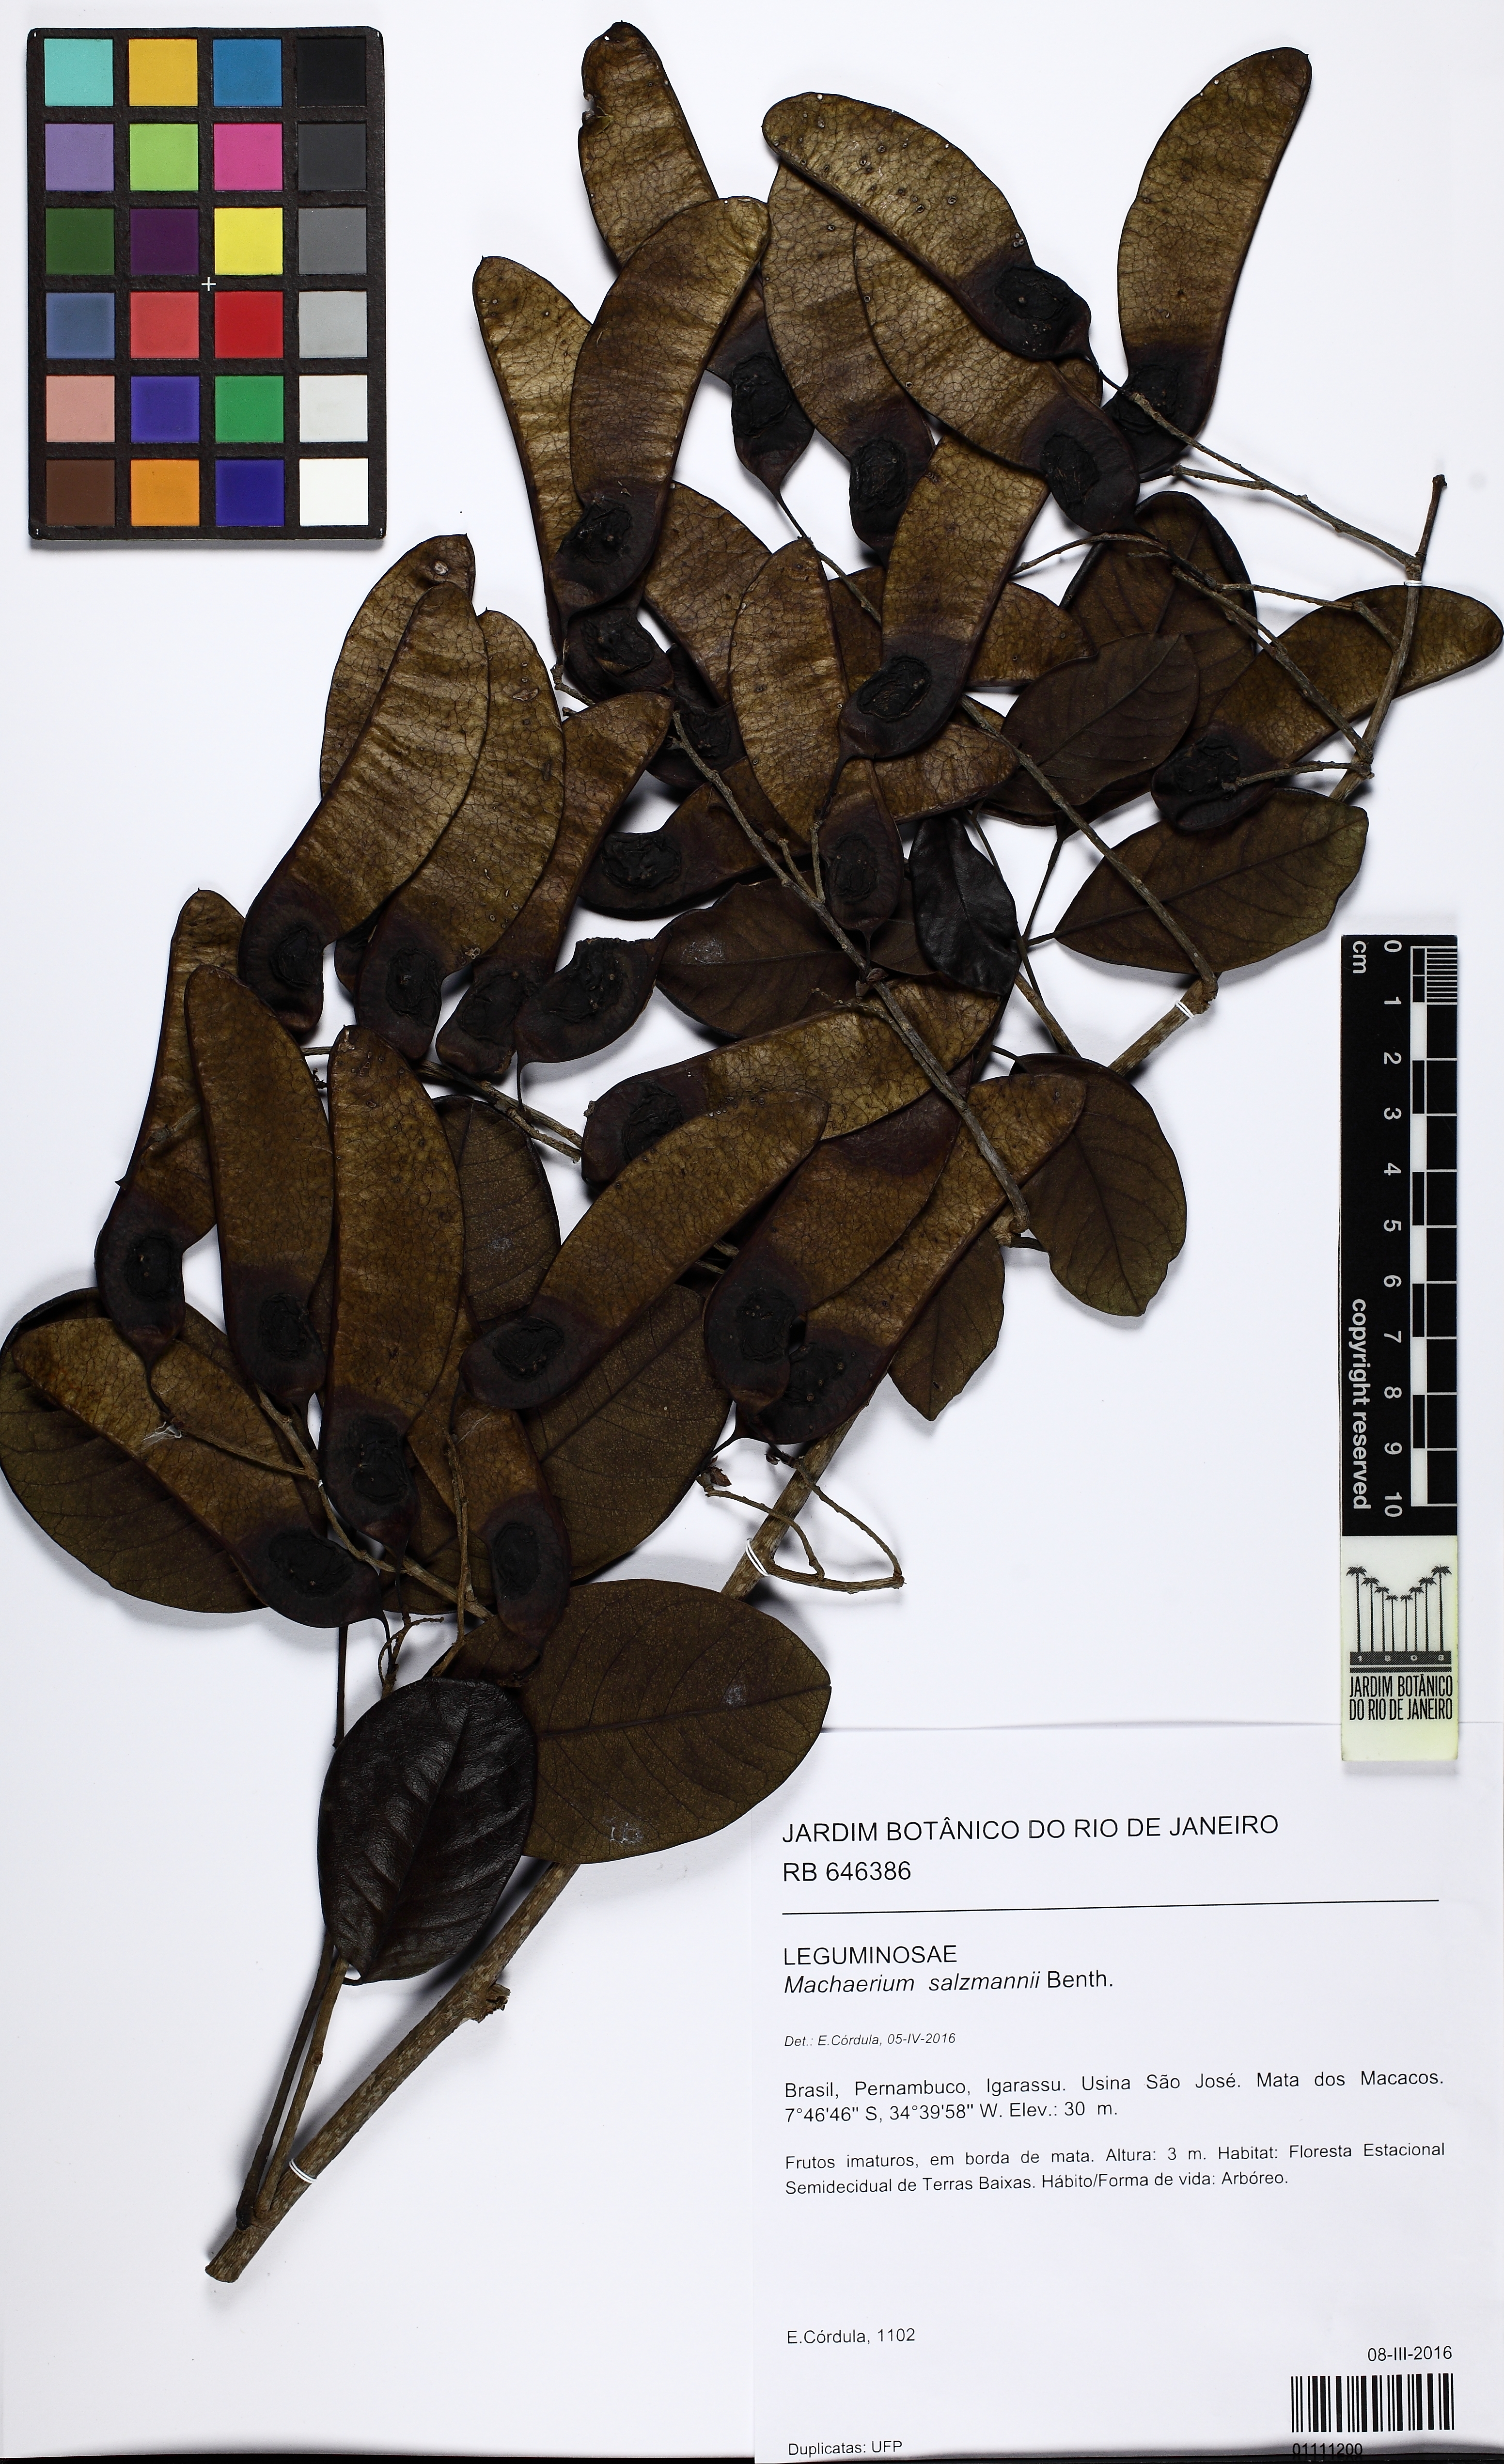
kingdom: Plantae
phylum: Tracheophyta
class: Magnoliopsida
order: Fabales
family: Fabaceae
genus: Machaerium
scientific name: Machaerium salzmannii
